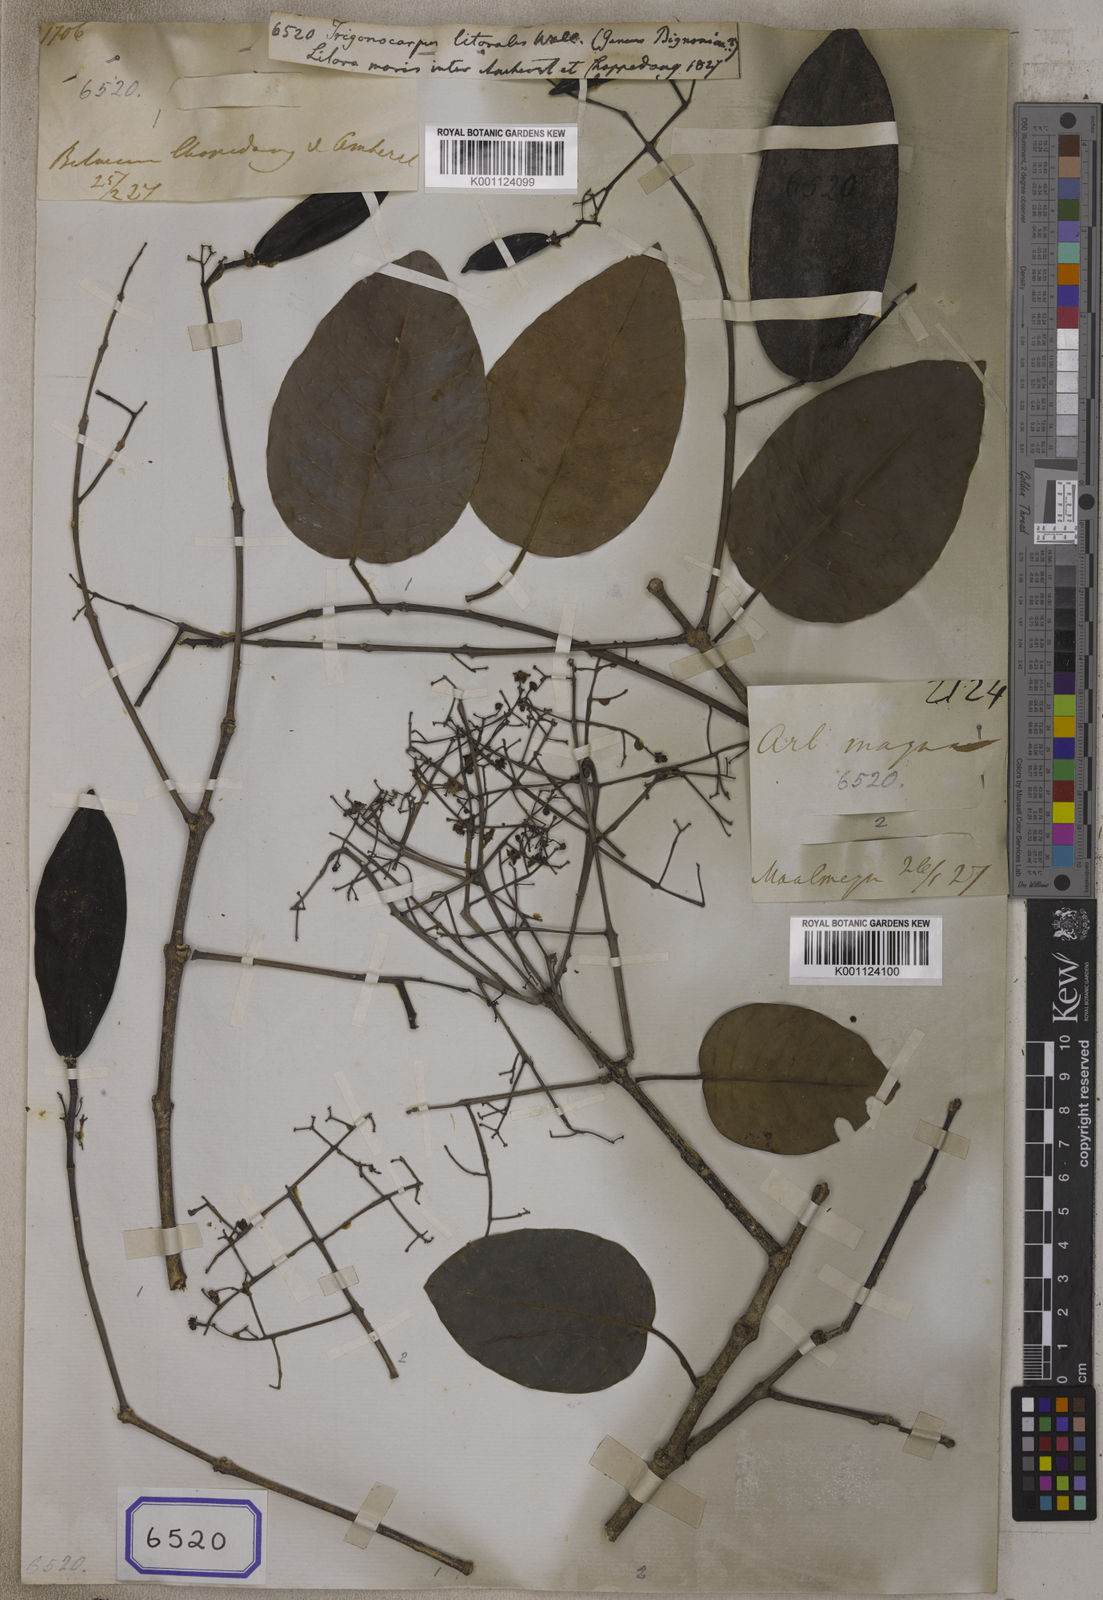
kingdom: Plantae
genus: Trigonocarpus
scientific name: Trigonocarpus
